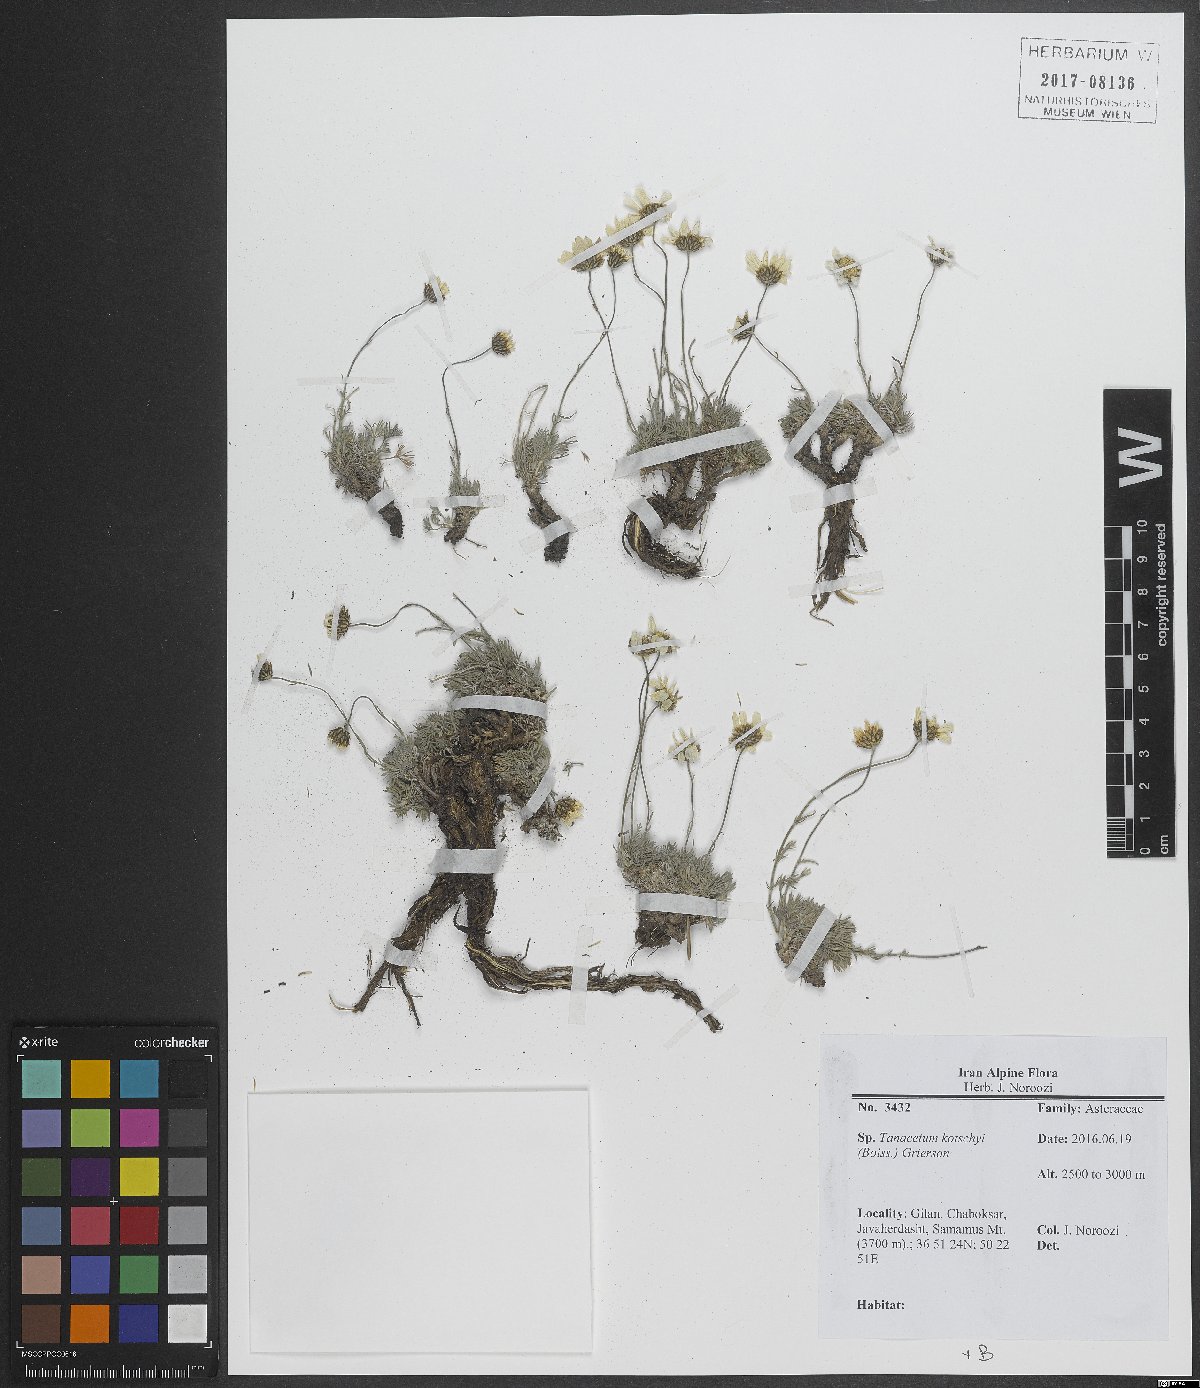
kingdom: Plantae
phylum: Tracheophyta
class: Magnoliopsida
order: Asterales
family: Asteraceae
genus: Tanacetum
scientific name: Tanacetum kotschyi
